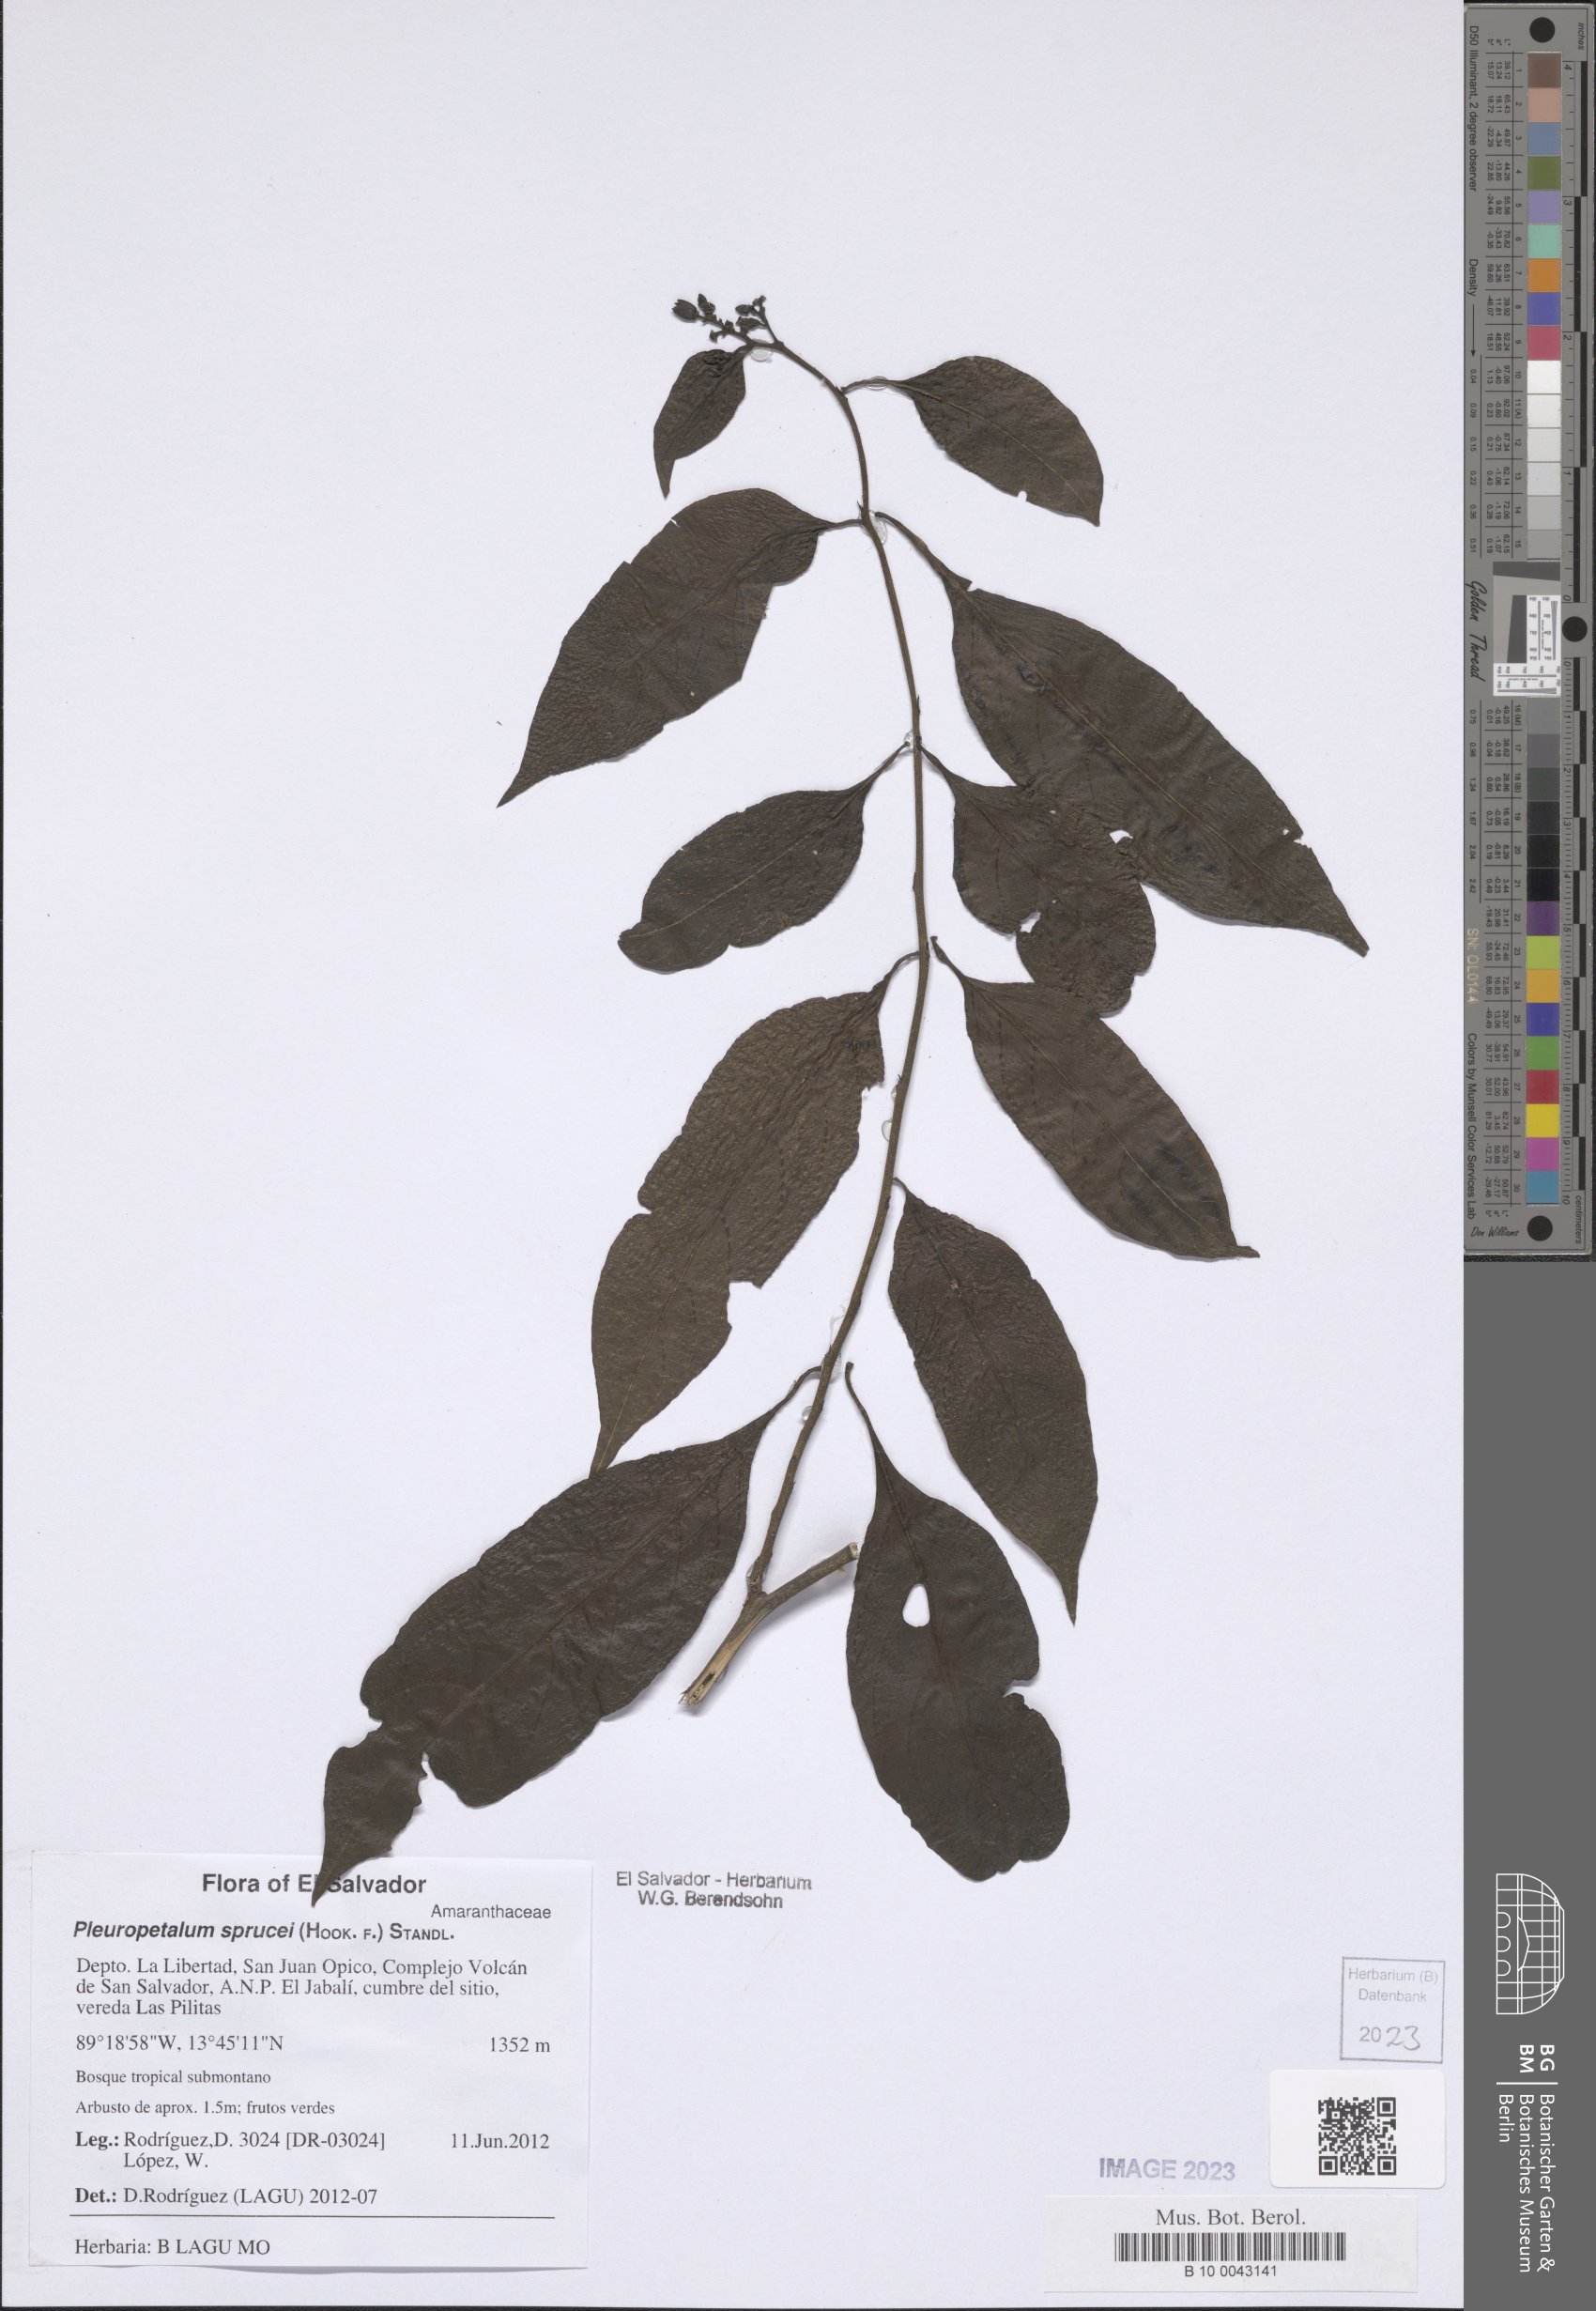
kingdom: Plantae
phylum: Tracheophyta
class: Magnoliopsida
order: Caryophyllales
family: Amaranthaceae
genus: Pleuropetalum
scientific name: Pleuropetalum sprucei
